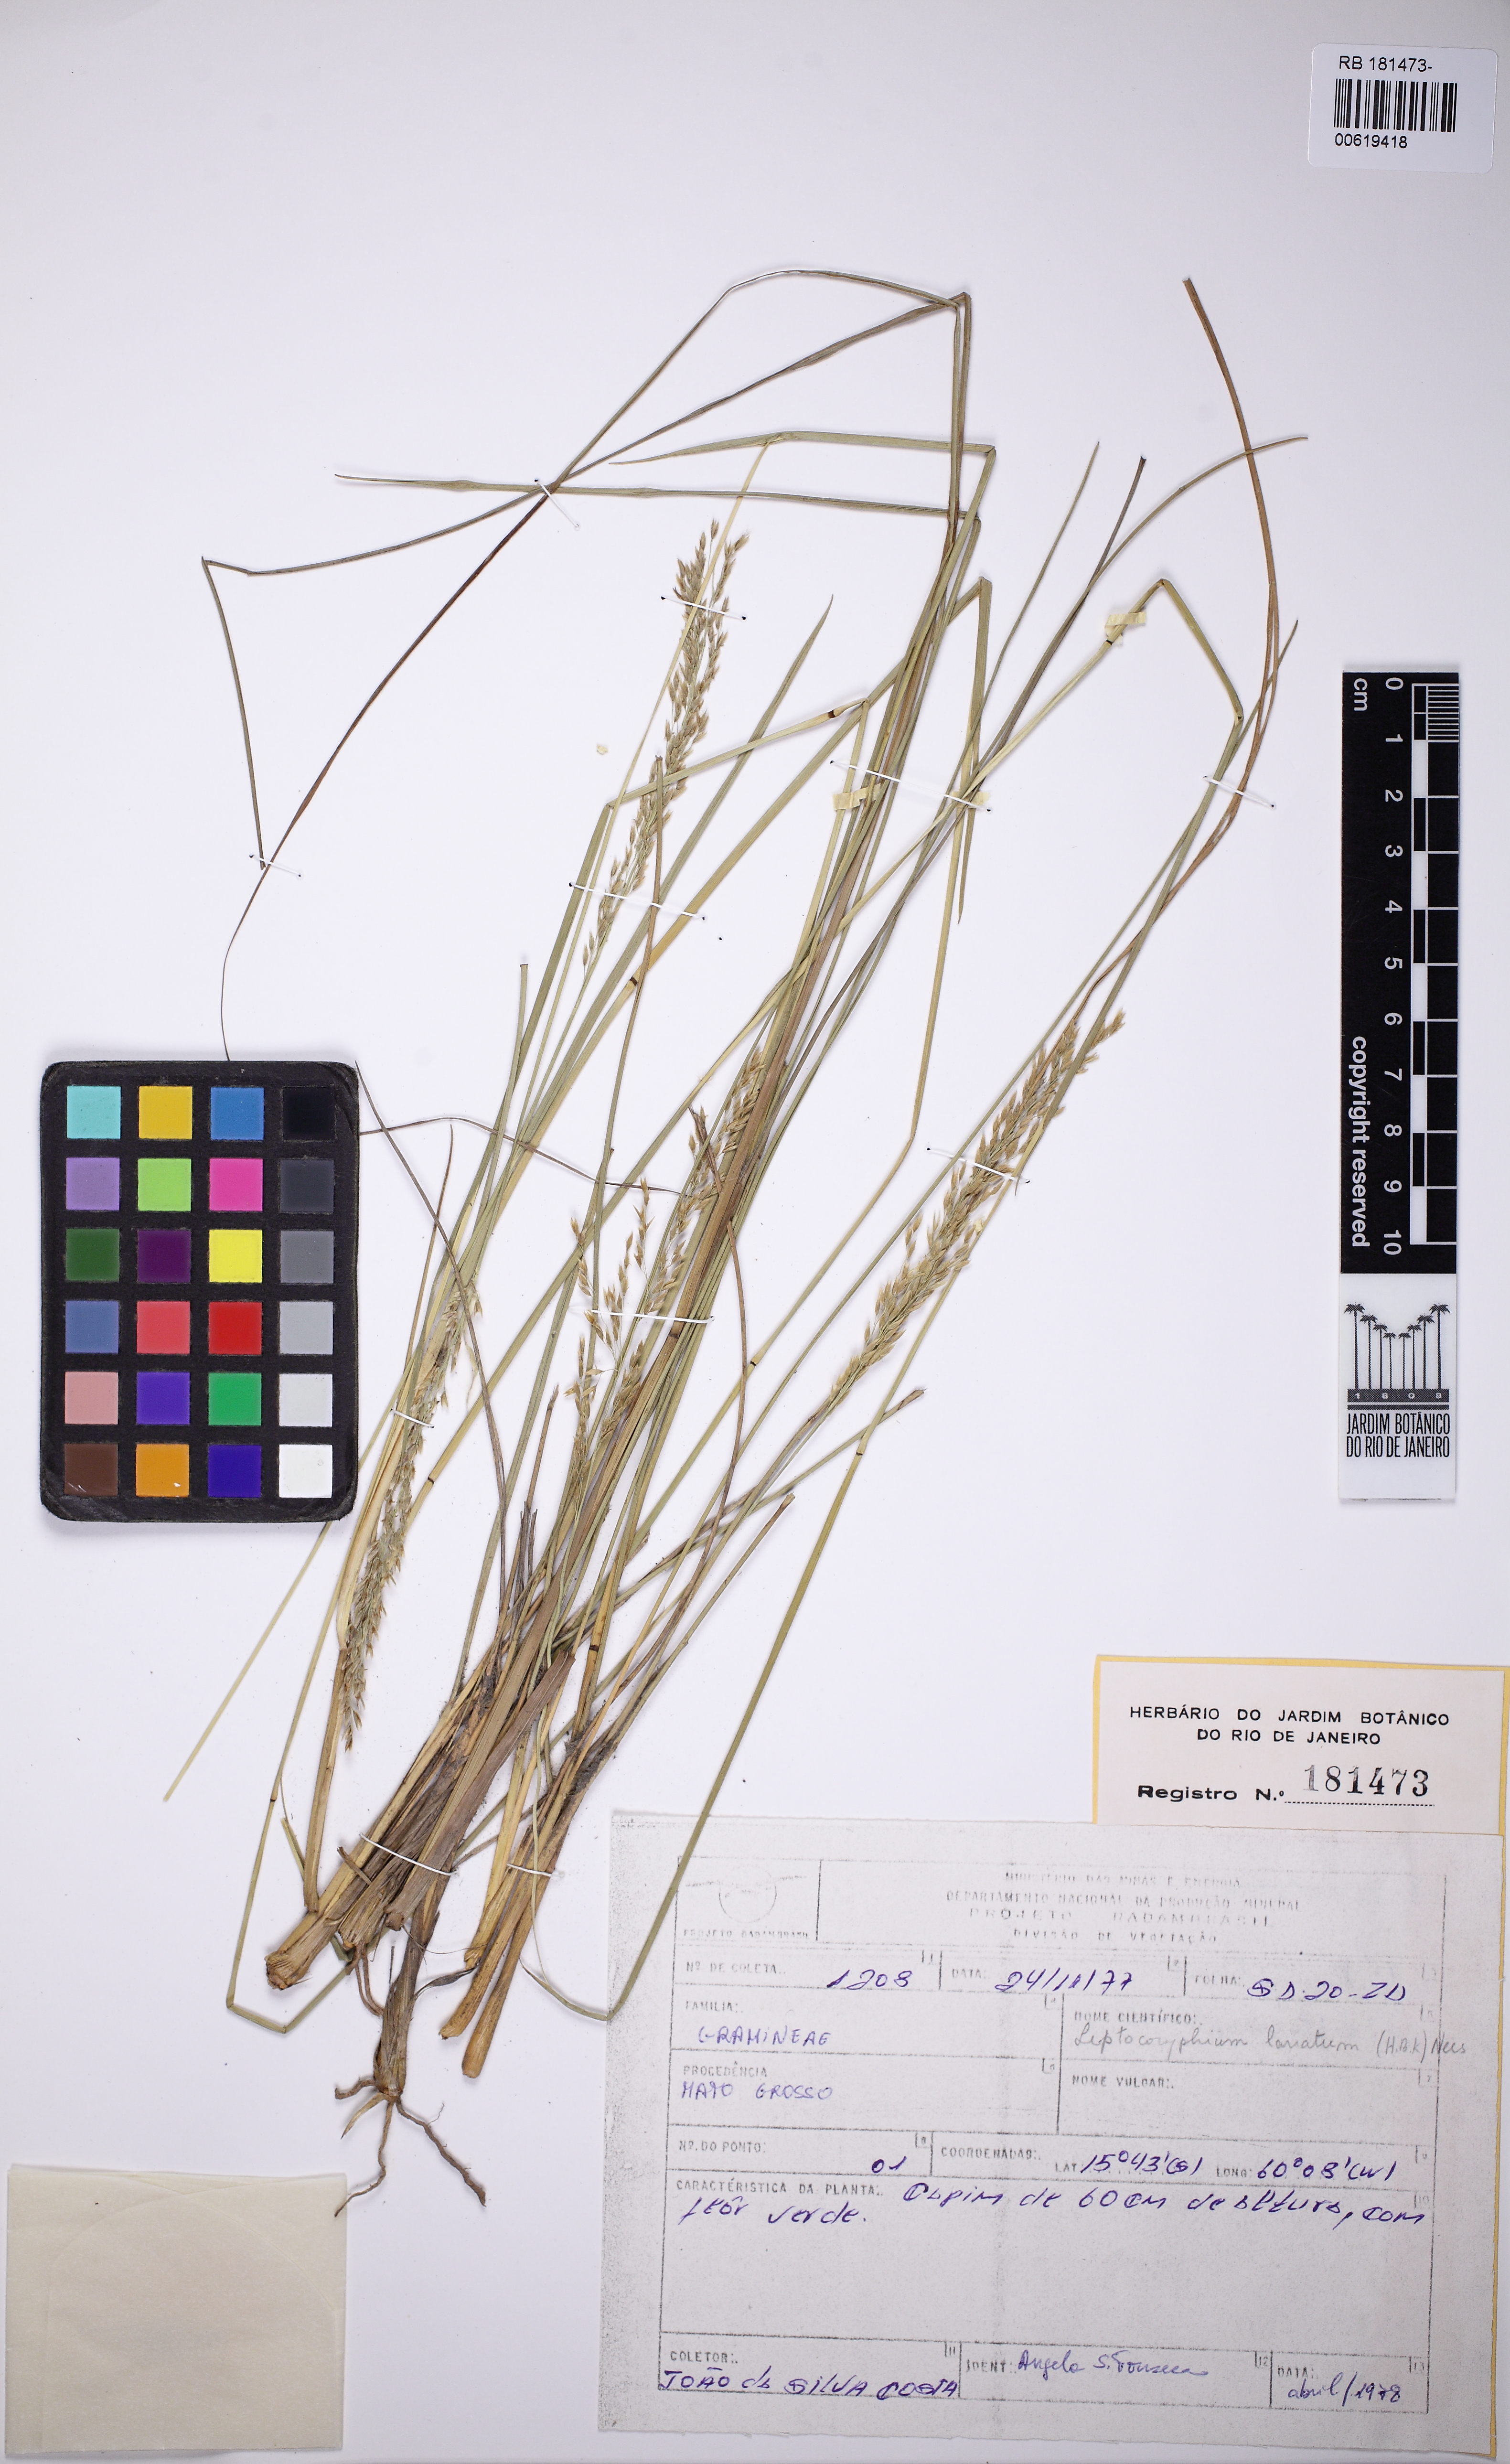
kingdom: Plantae
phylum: Tracheophyta
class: Liliopsida
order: Poales
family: Poaceae
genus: Anthenantia
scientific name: Anthenantia lanata
